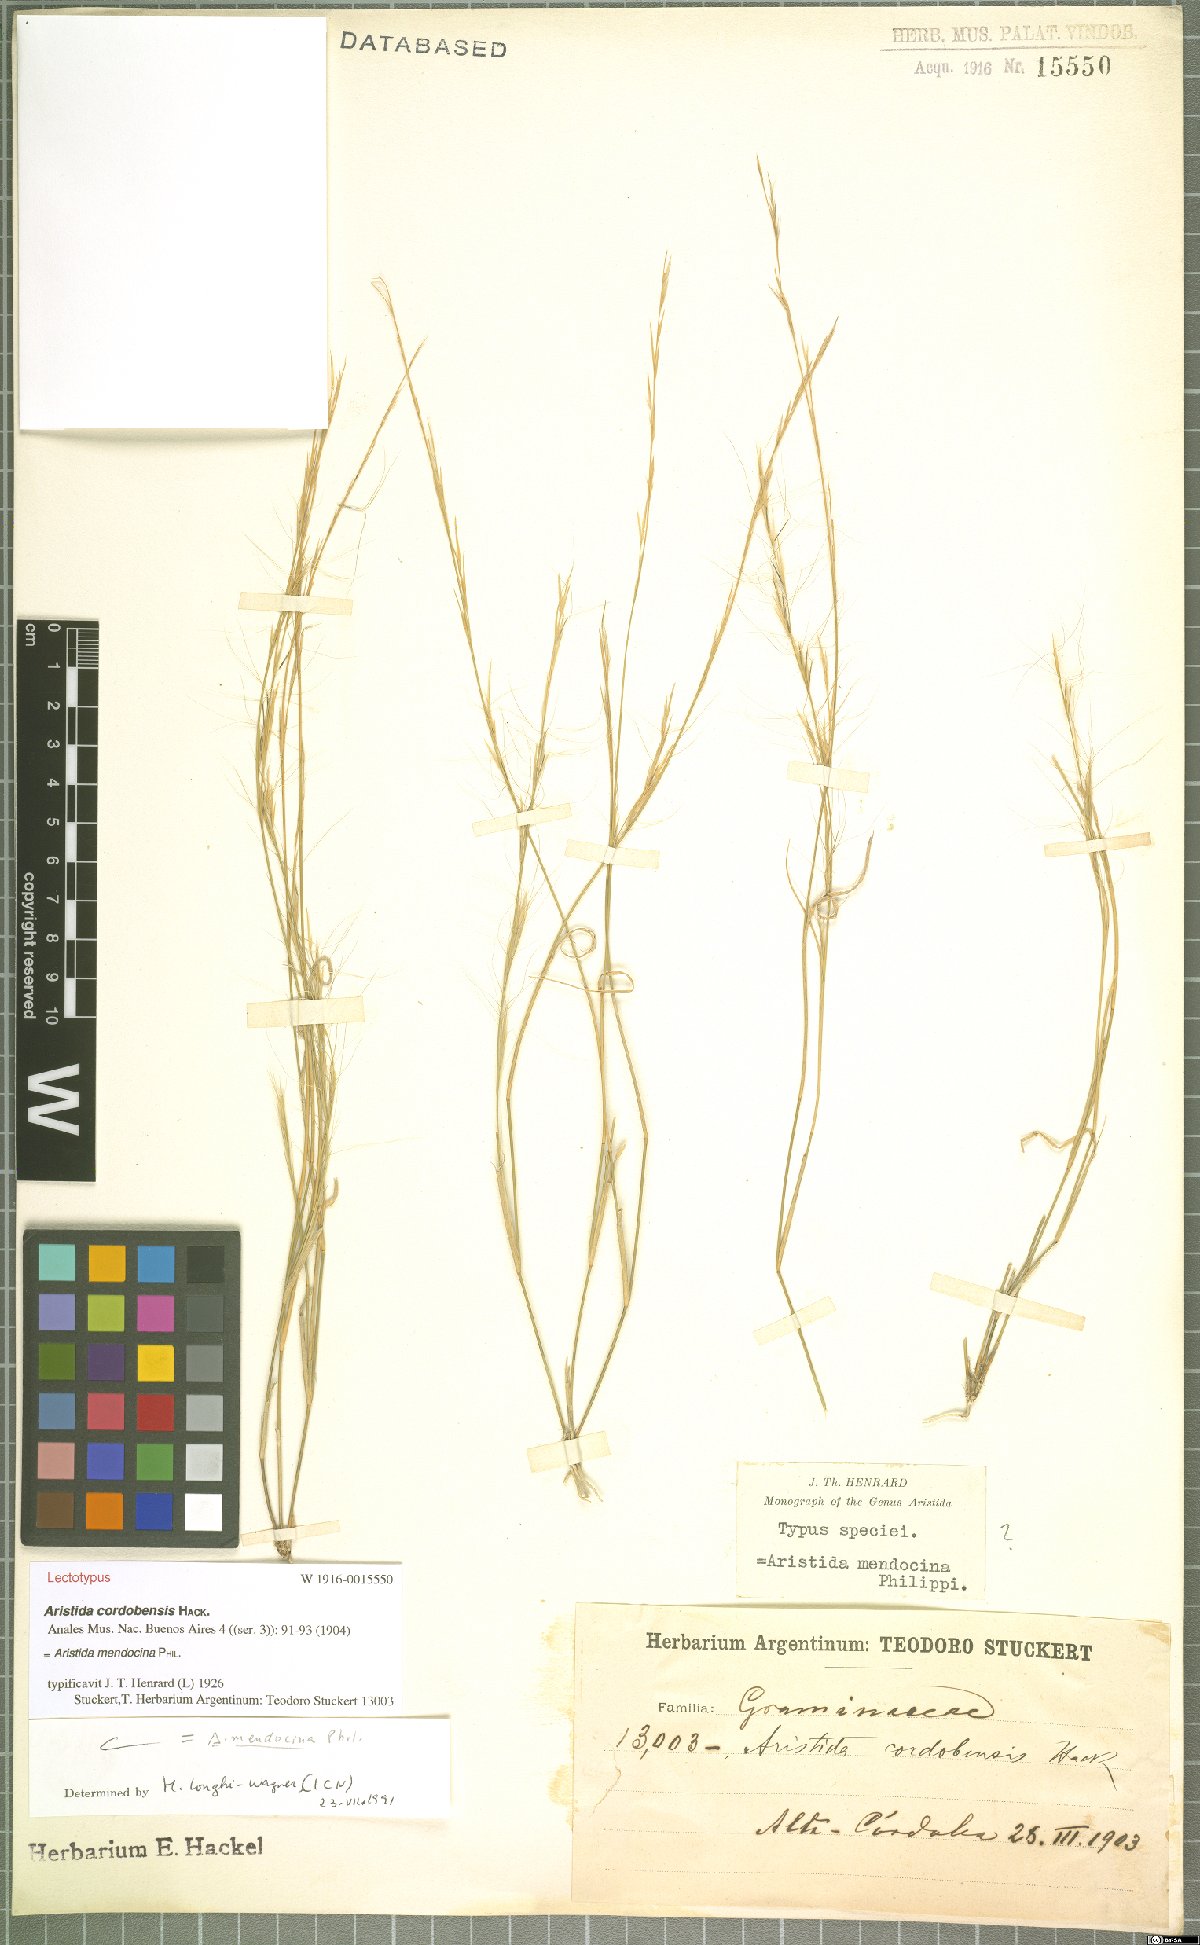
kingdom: Plantae
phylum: Tracheophyta
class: Liliopsida
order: Poales
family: Poaceae
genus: Aristida
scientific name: Aristida mendocina
